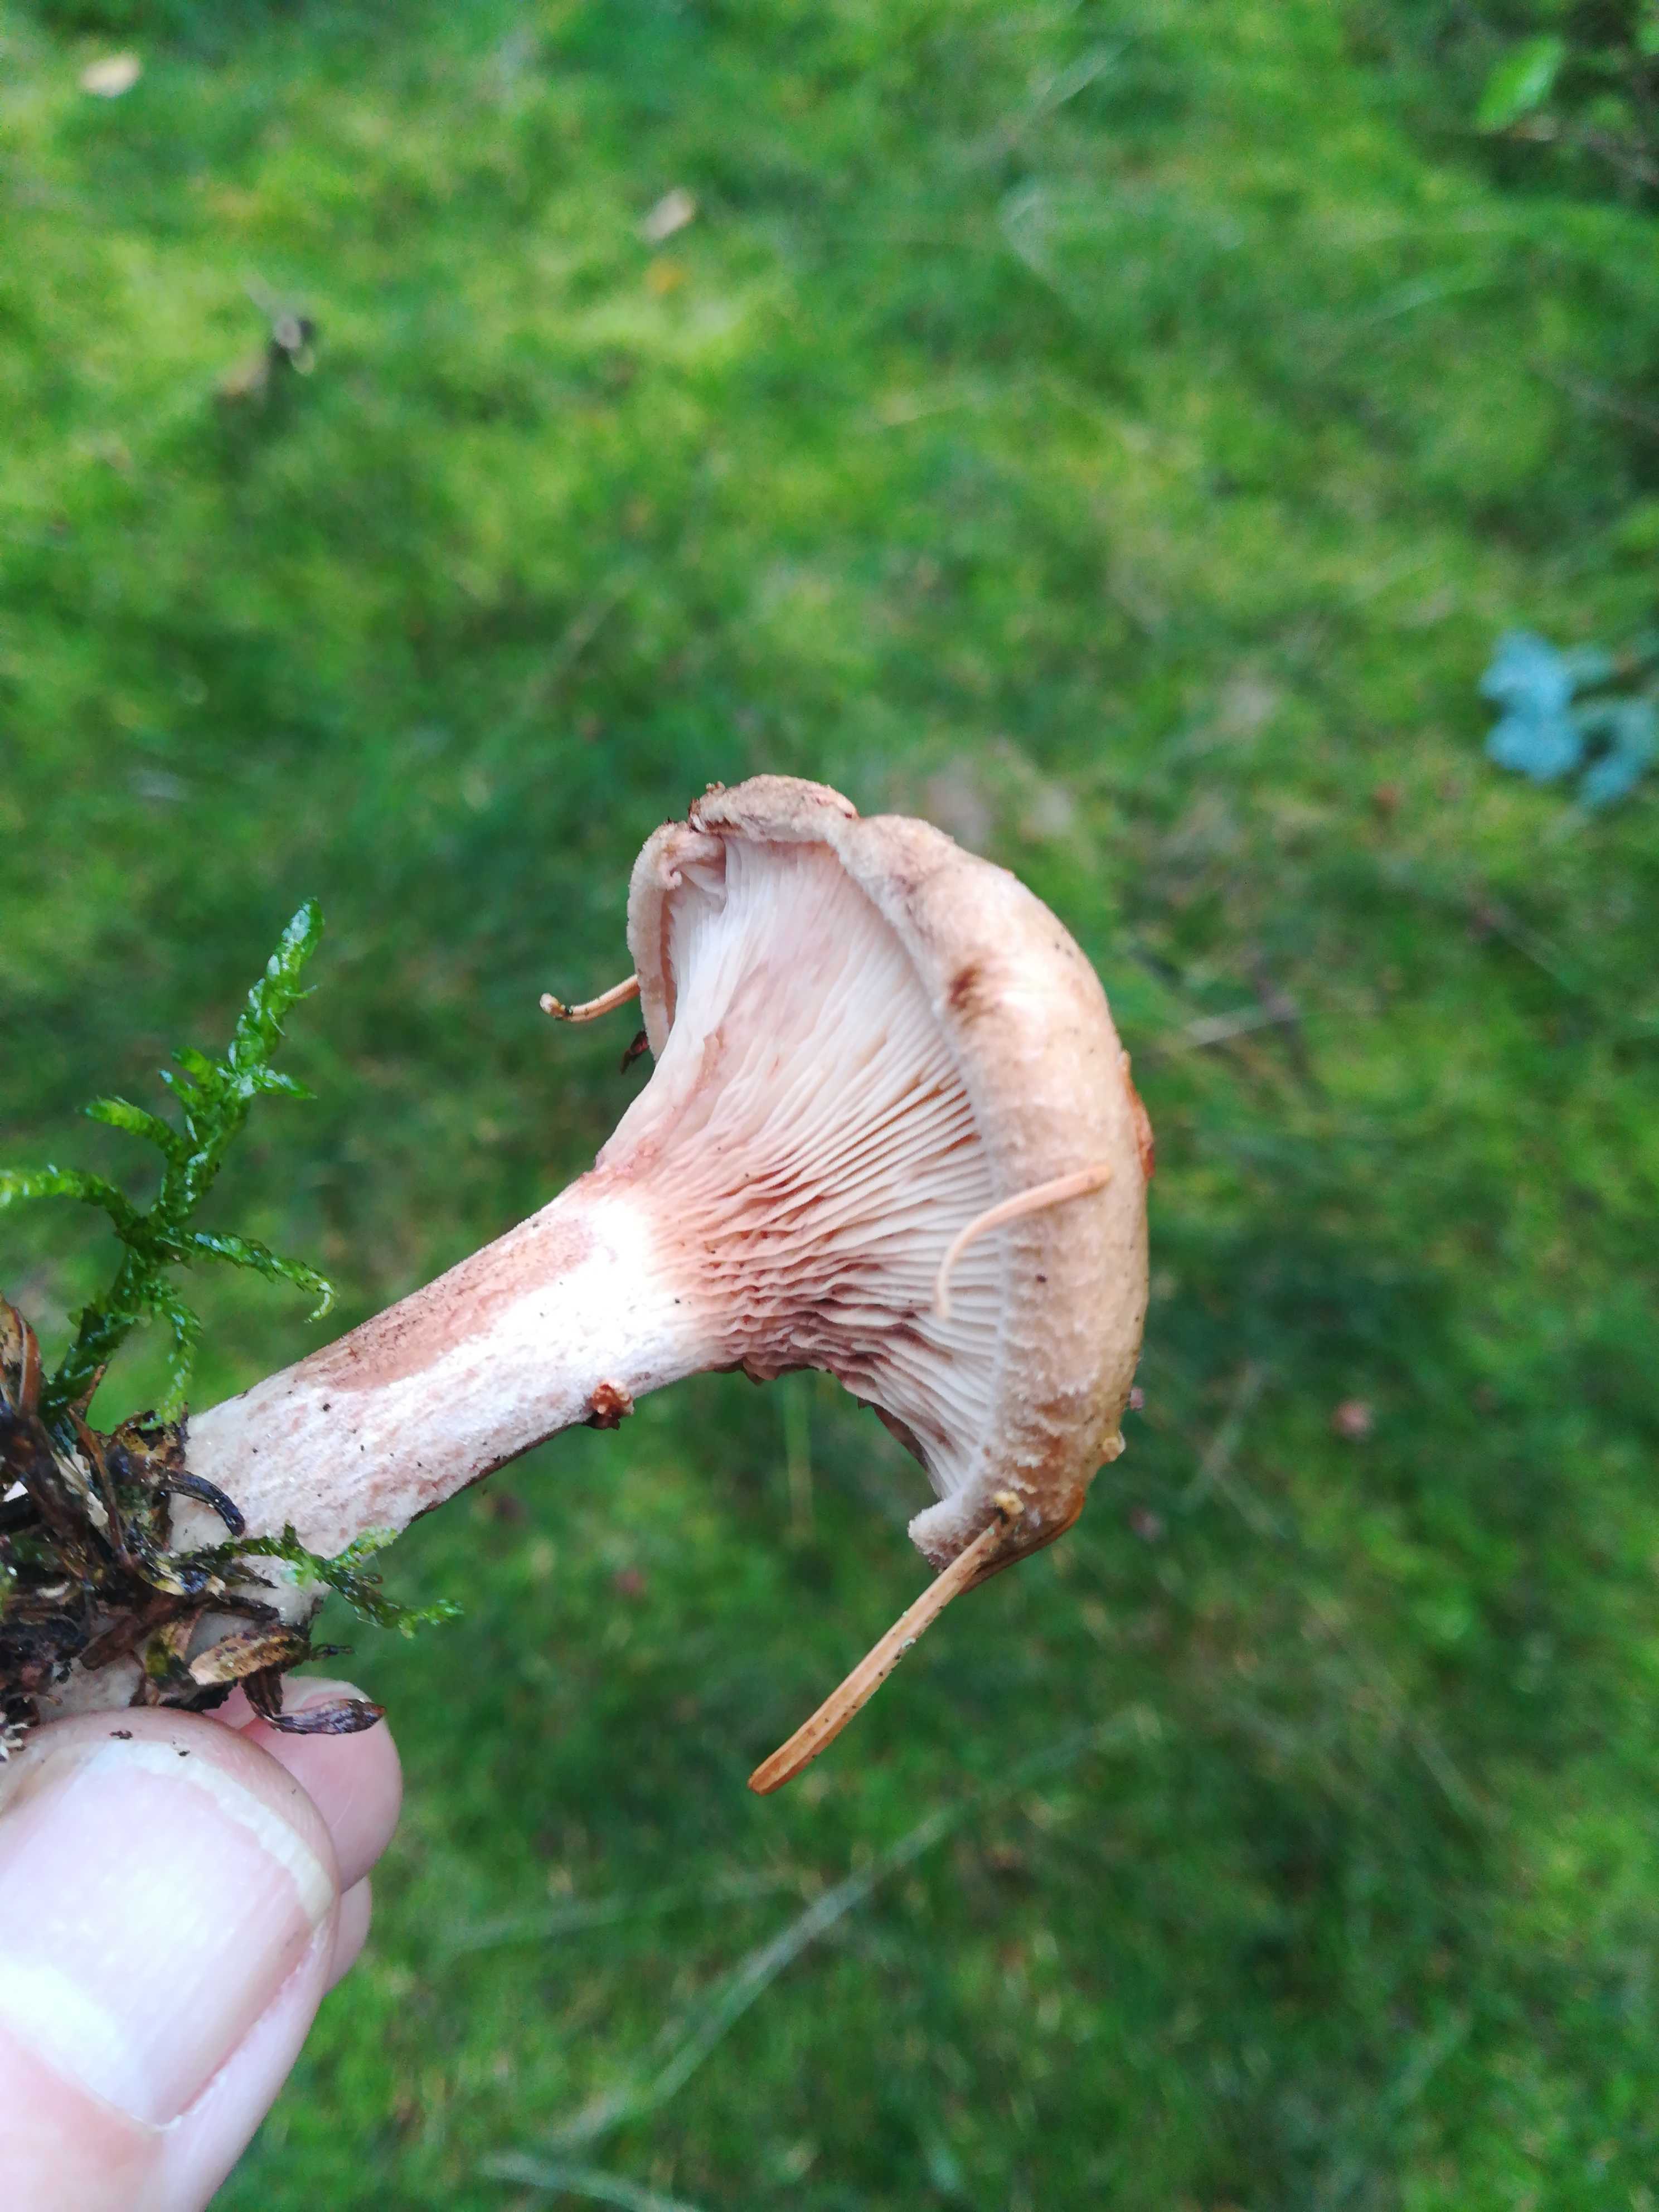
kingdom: Fungi
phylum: Basidiomycota
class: Agaricomycetes
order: Boletales
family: Paxillaceae
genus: Paxillus
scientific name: Paxillus involutus
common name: almindelig netbladhat
